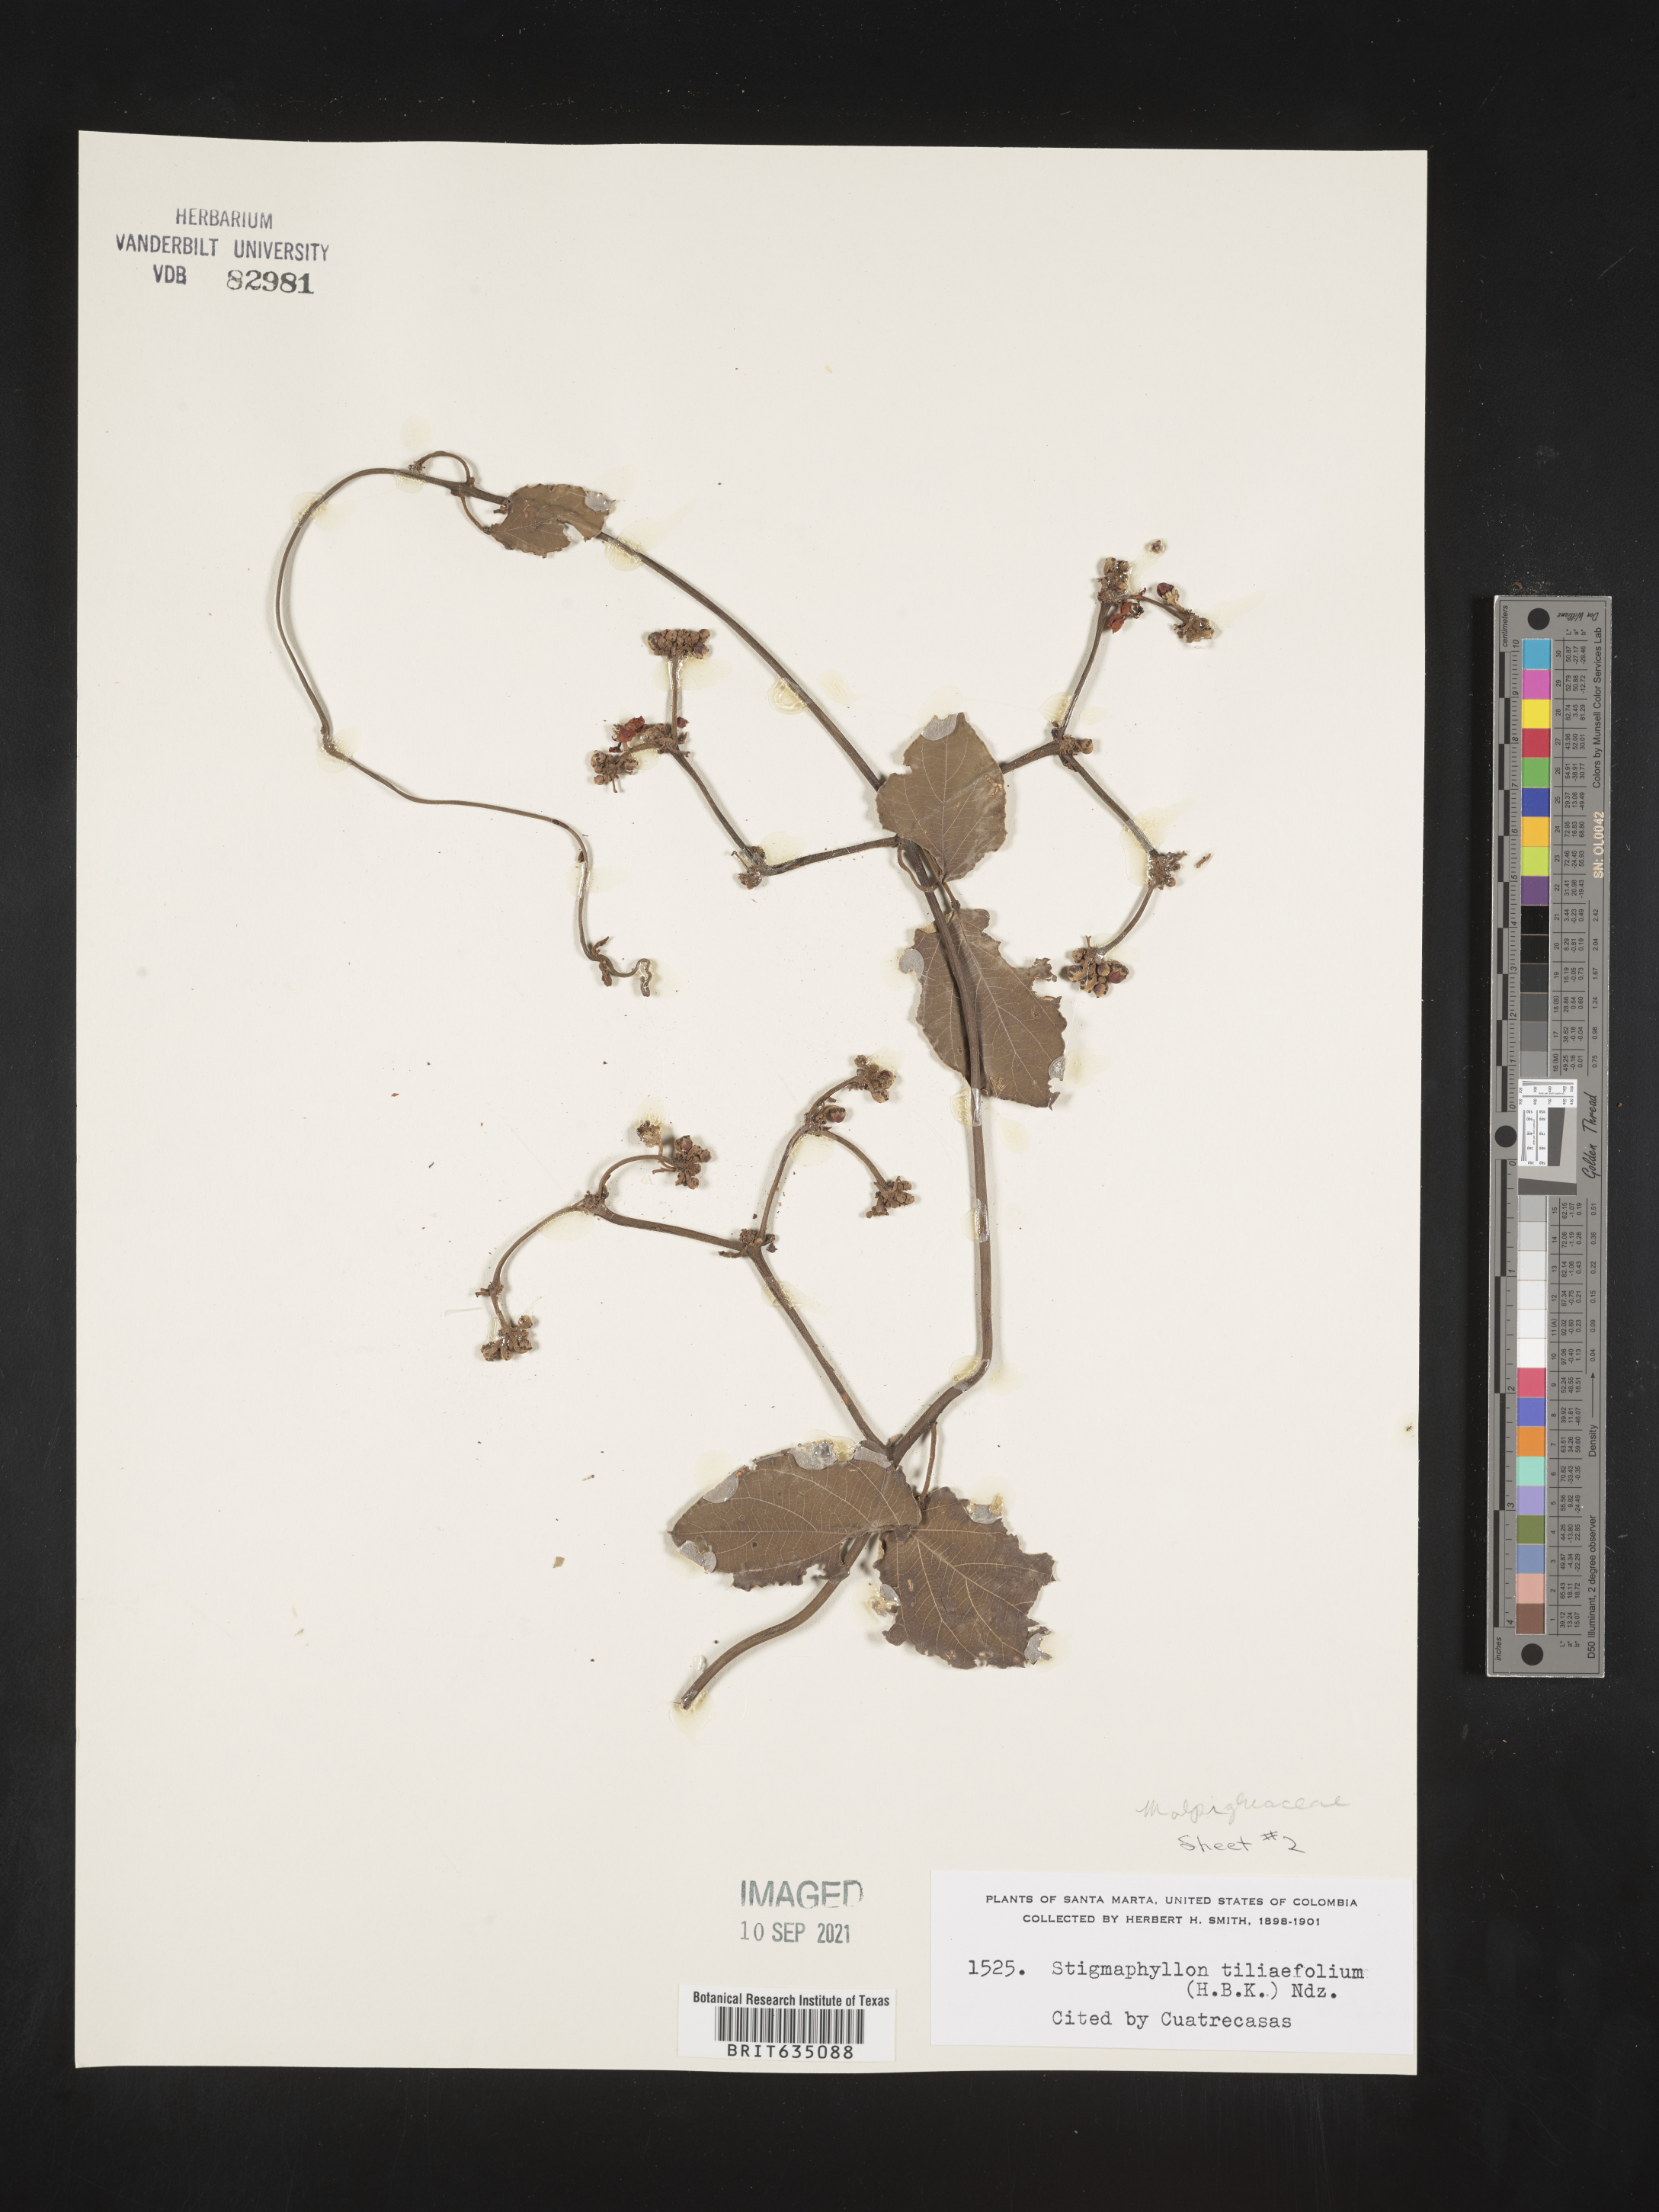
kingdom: Plantae
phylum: Tracheophyta
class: Magnoliopsida
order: Malpighiales
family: Malpighiaceae
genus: Stigmaphyllon
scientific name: Stigmaphyllon
